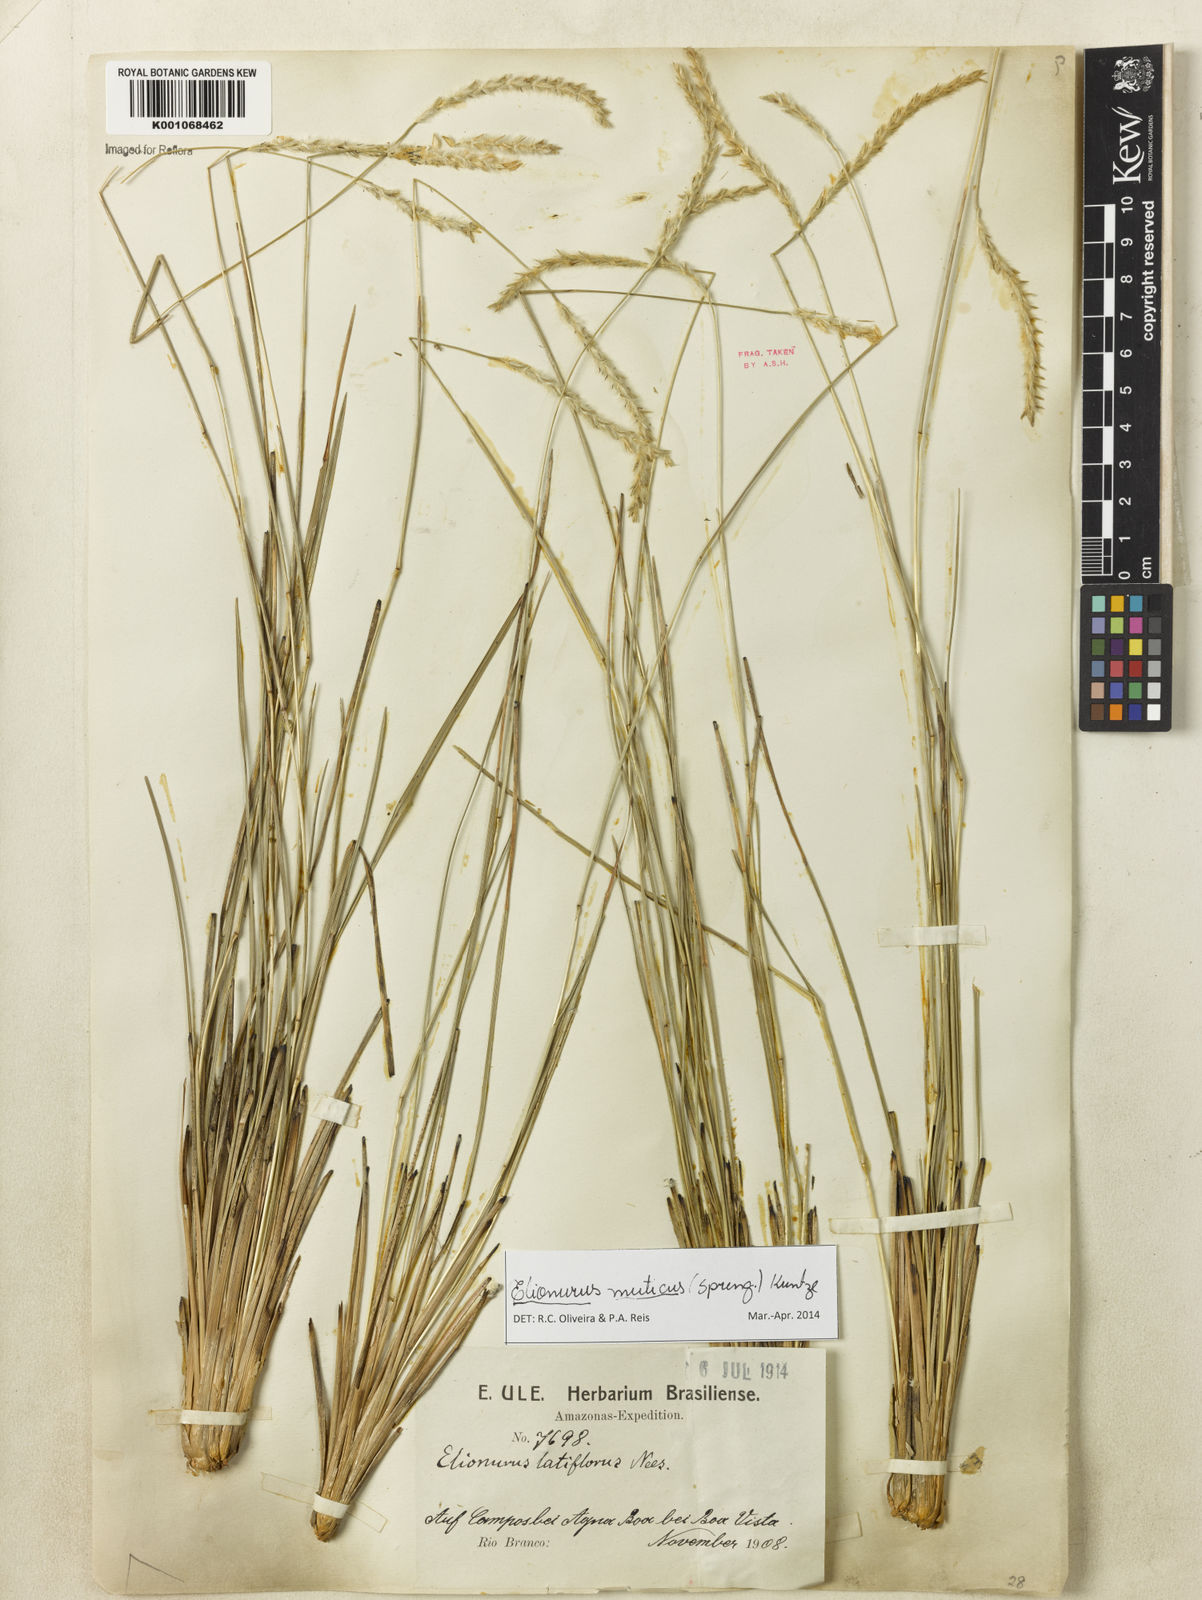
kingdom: Plantae
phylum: Tracheophyta
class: Liliopsida
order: Poales
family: Poaceae
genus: Elionurus
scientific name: Elionurus muticus
